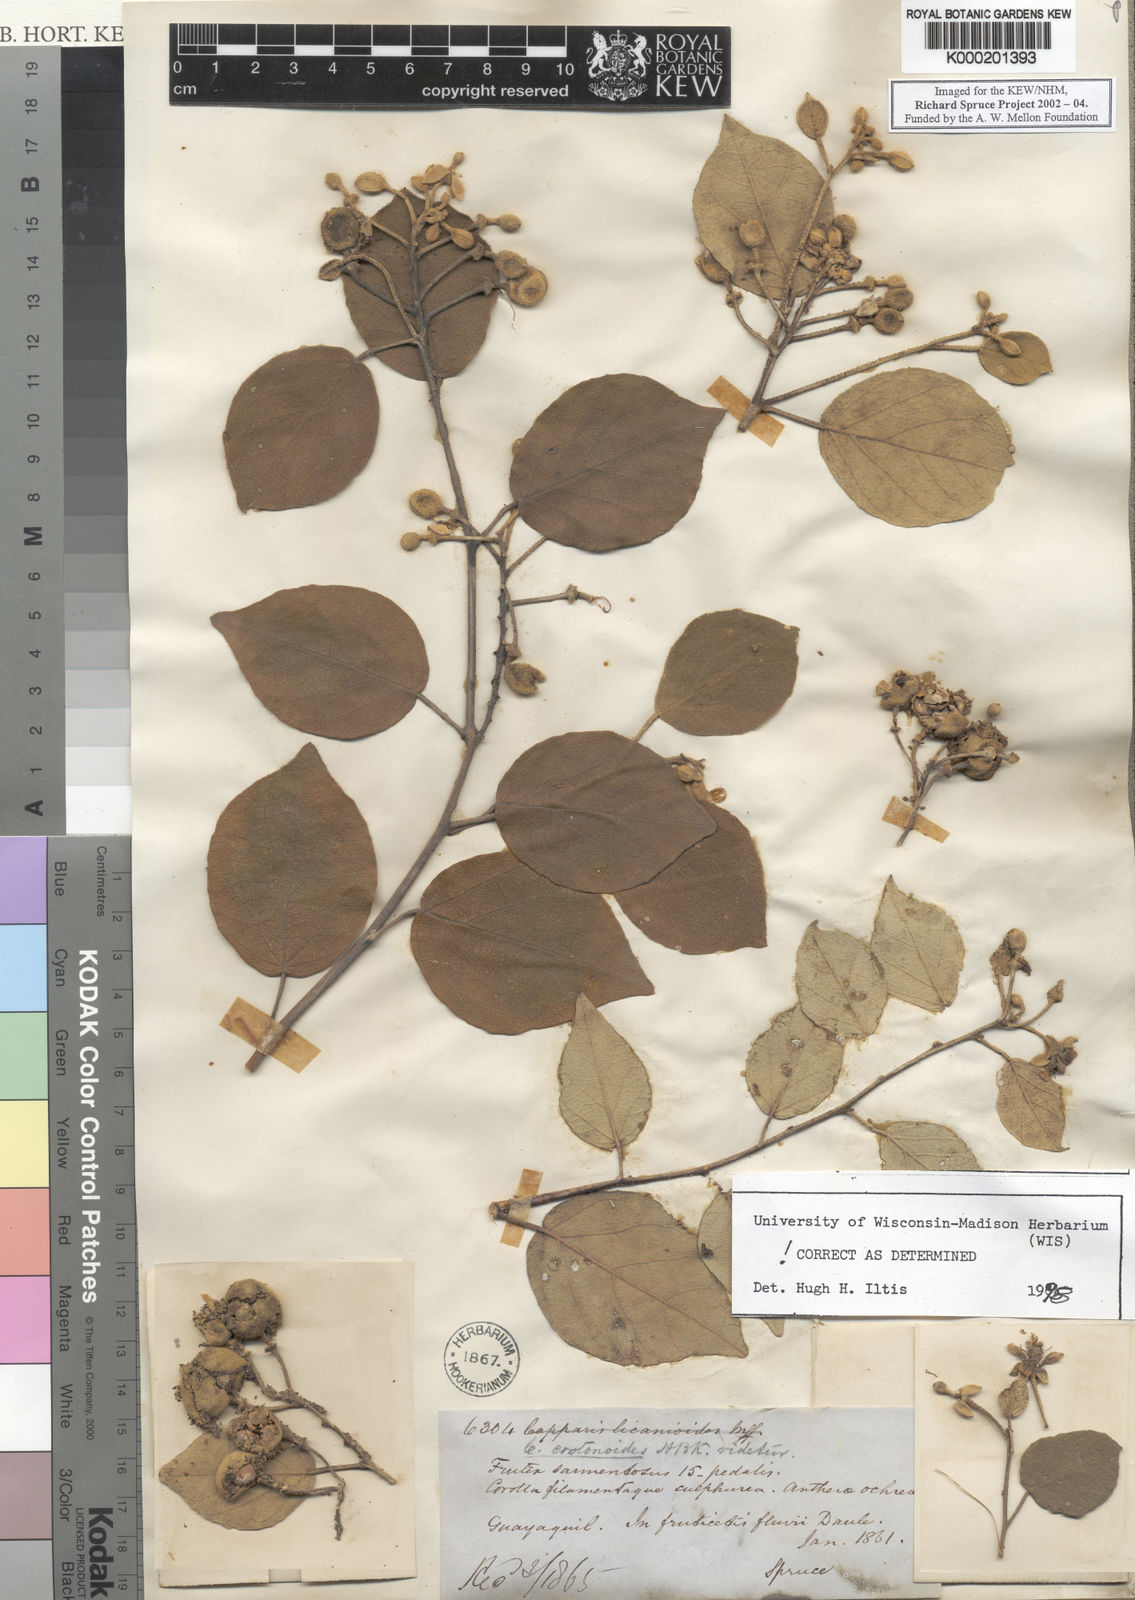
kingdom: Plantae
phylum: Tracheophyta
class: Magnoliopsida
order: Brassicales
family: Capparaceae
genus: Capparicordis
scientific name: Capparicordis crotonoides
